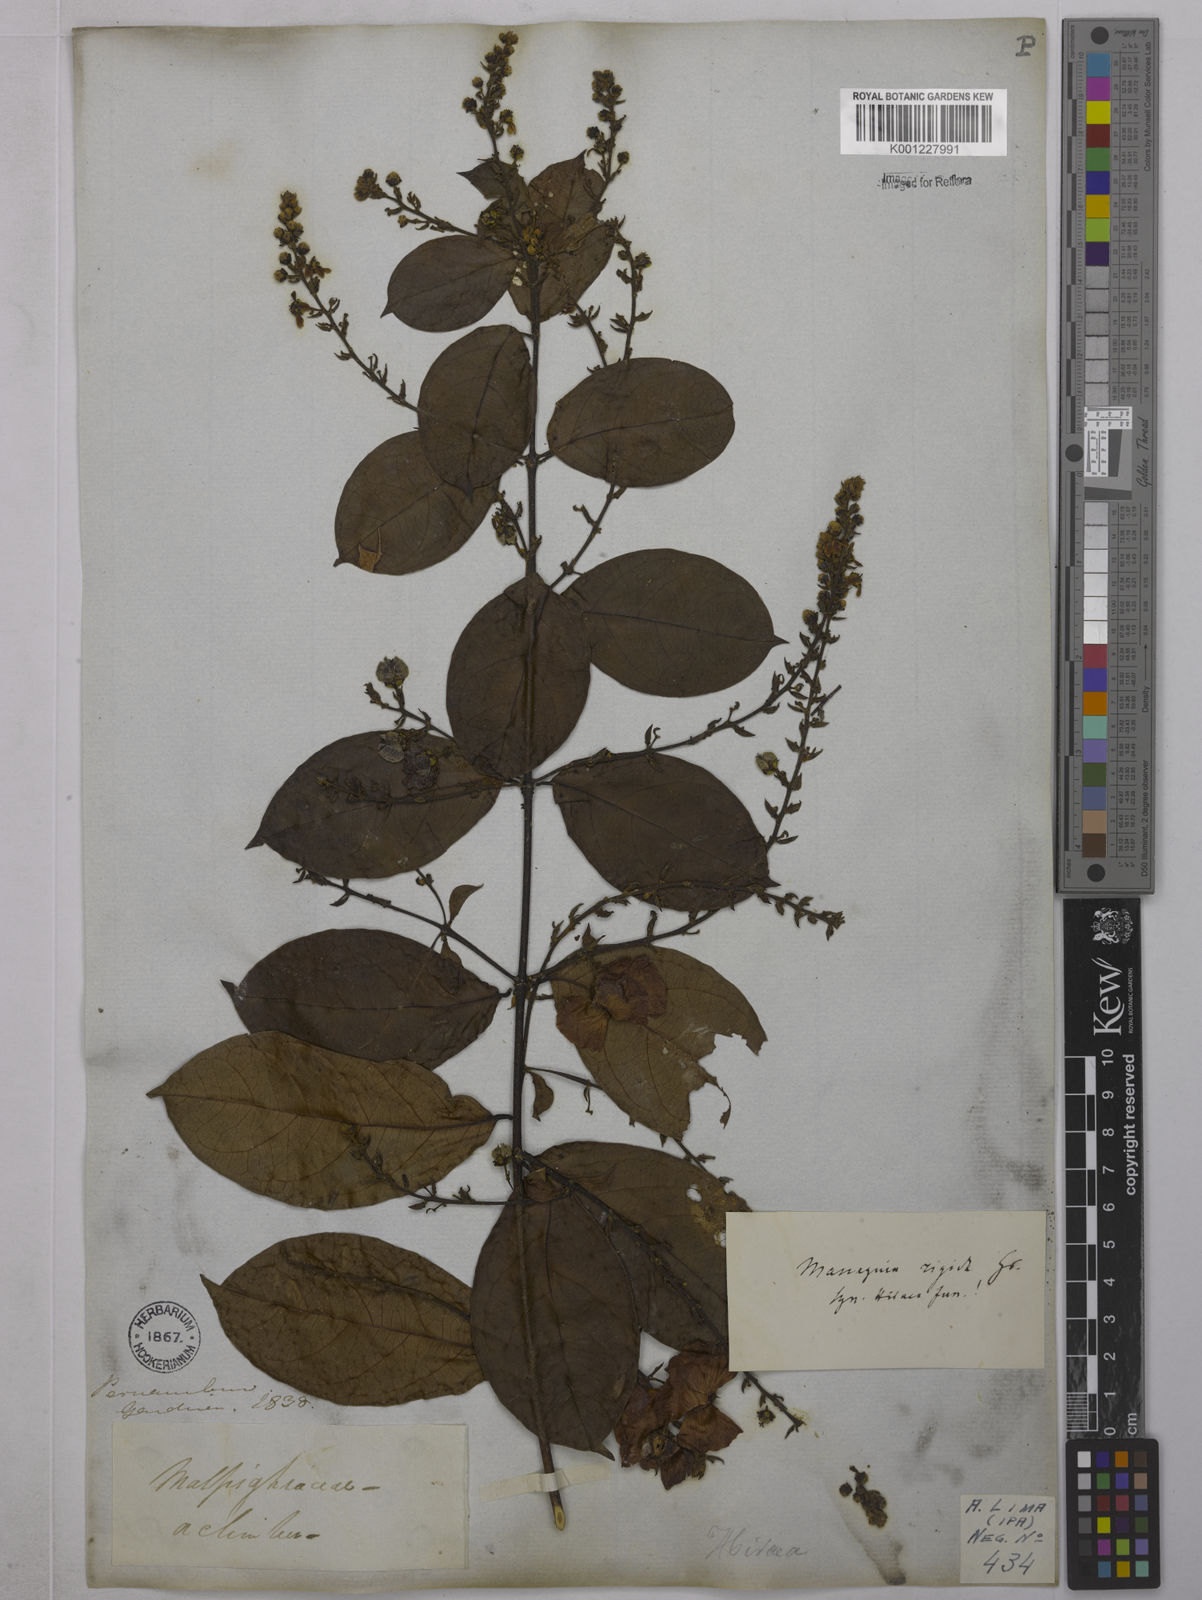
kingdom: Plantae
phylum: Tracheophyta
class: Magnoliopsida
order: Malpighiales
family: Malpighiaceae
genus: Amorimia
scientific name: Amorimia rigida
